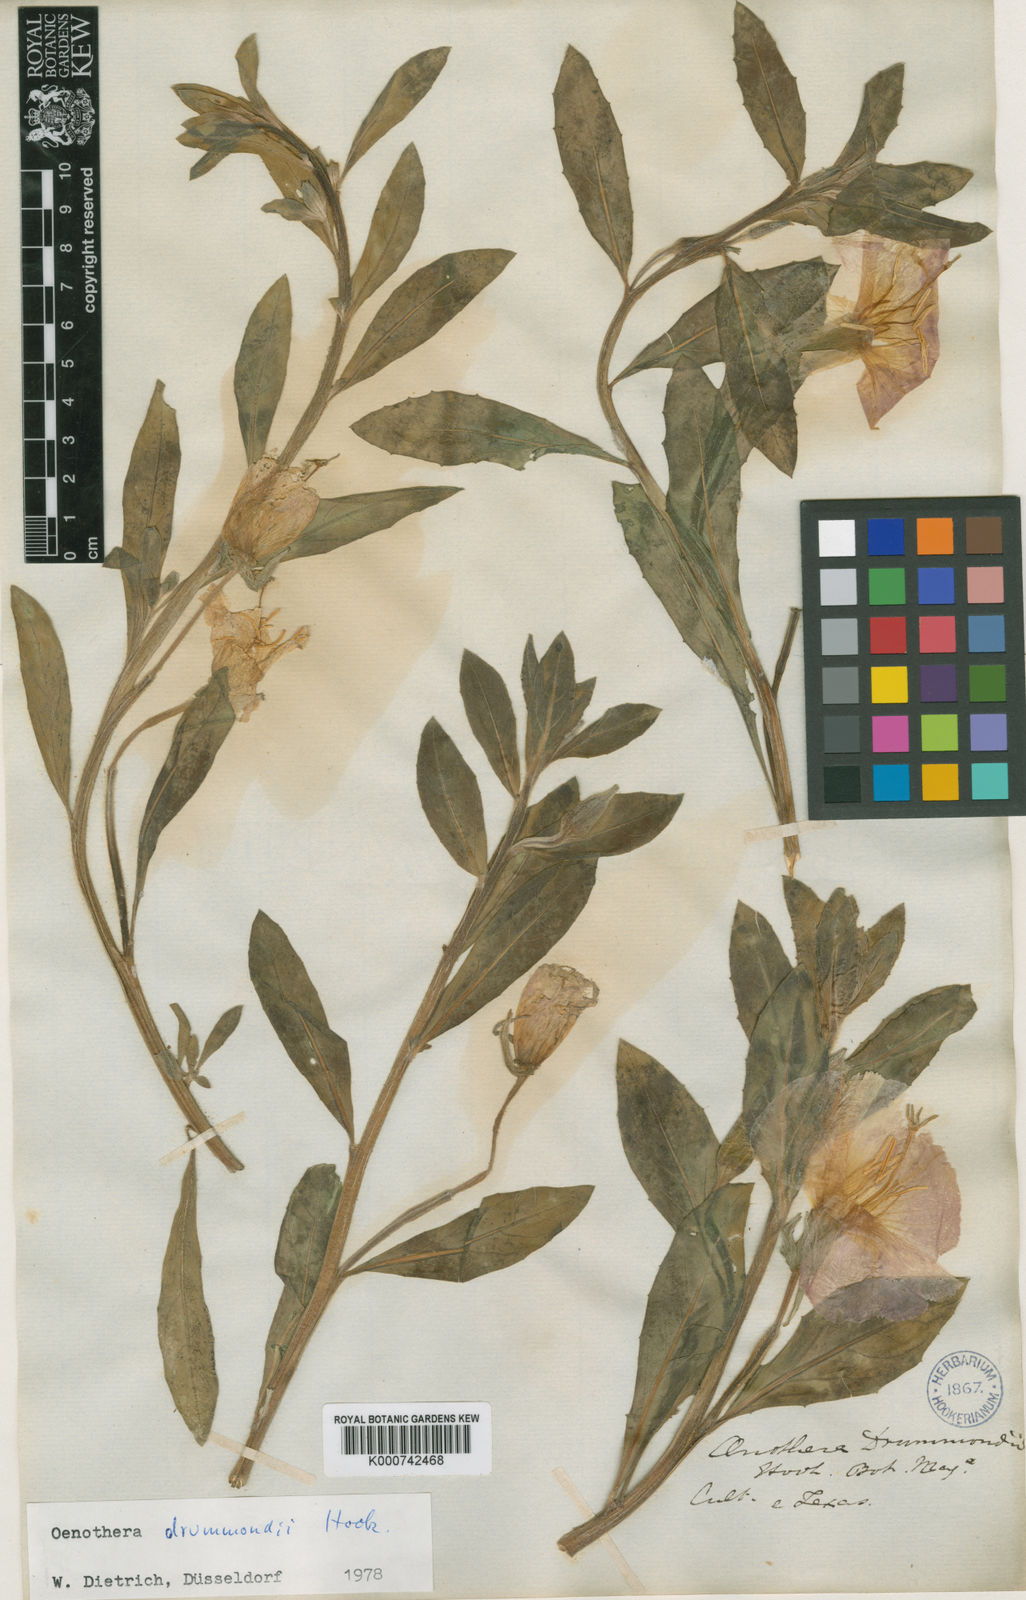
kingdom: Plantae
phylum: Tracheophyta
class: Magnoliopsida
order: Myrtales
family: Onagraceae
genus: Oenothera
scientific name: Oenothera drummondii
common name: Beach evening-primrose
